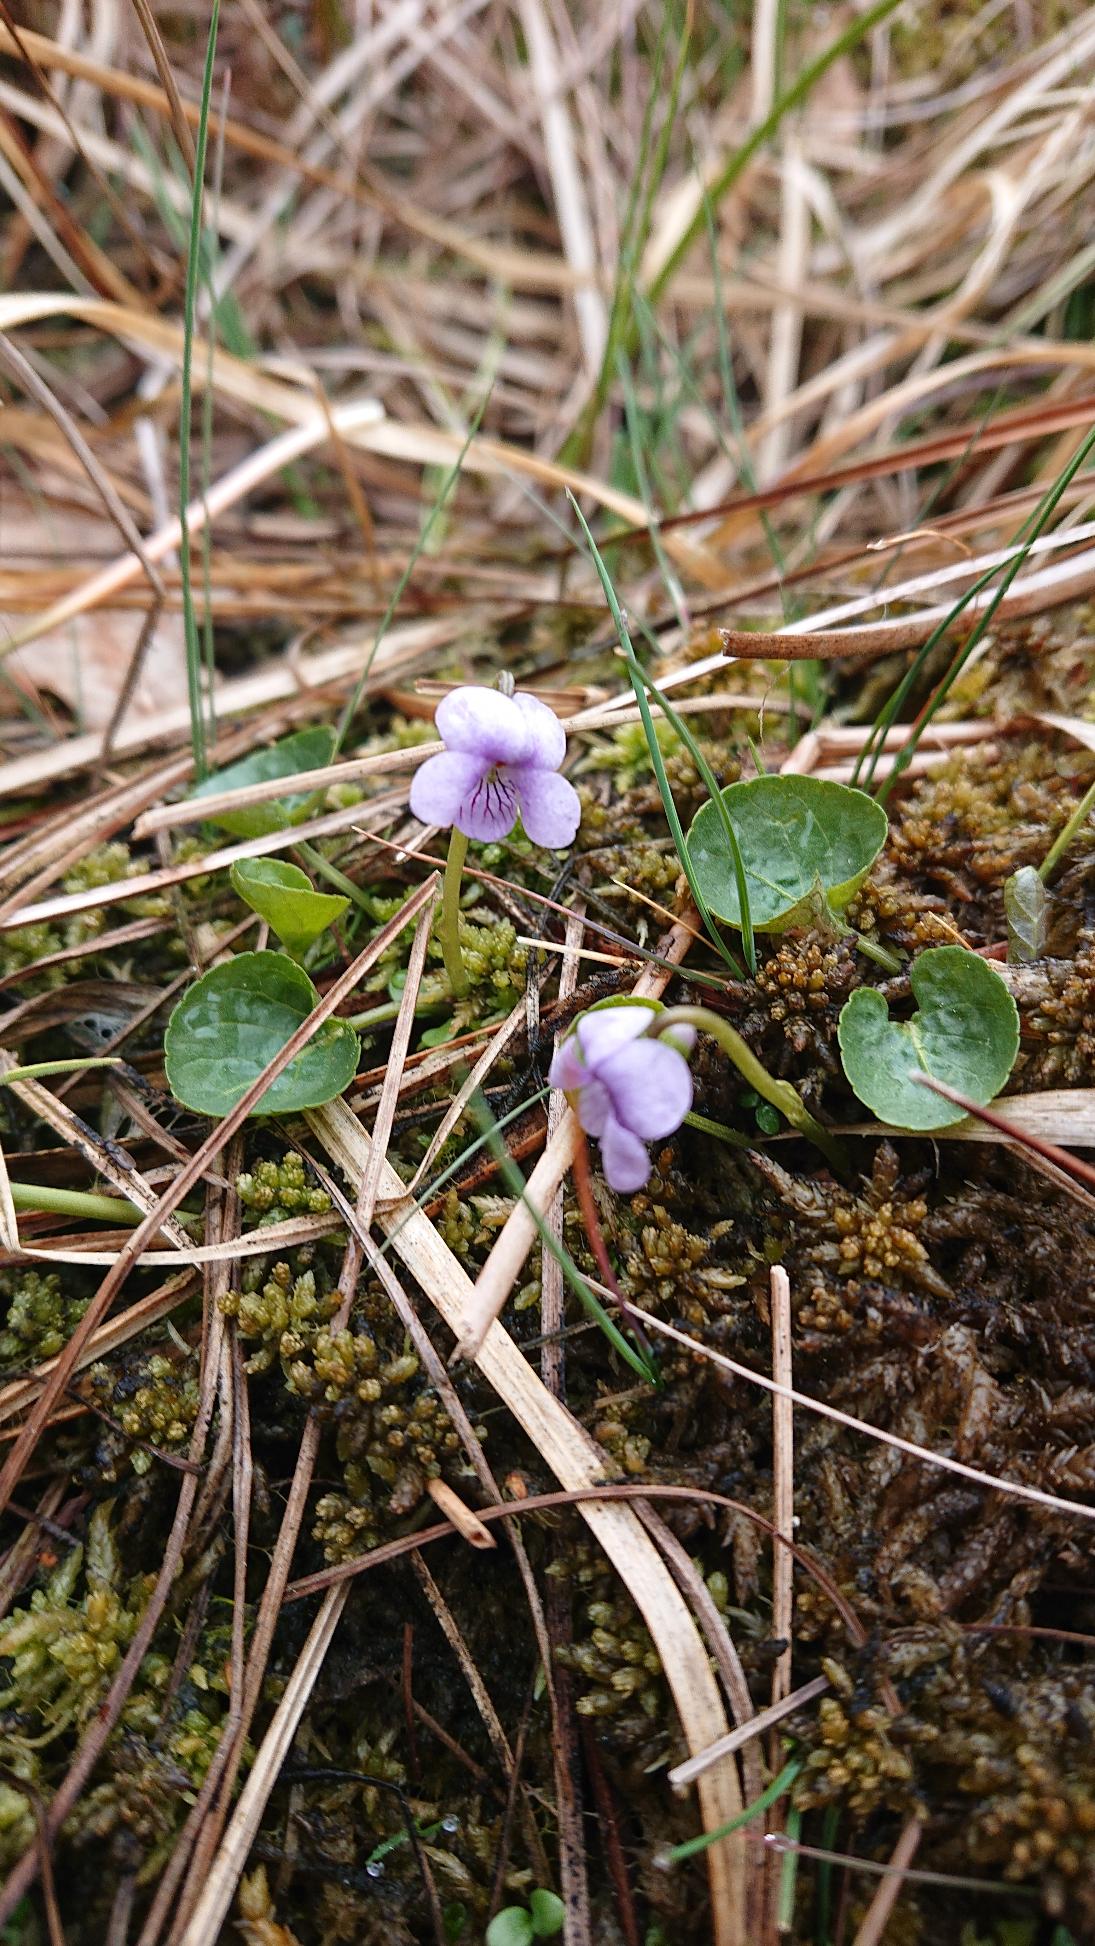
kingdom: Plantae
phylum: Tracheophyta
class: Magnoliopsida
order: Malpighiales
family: Violaceae
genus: Viola
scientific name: Viola palustris
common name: Eng-viol
